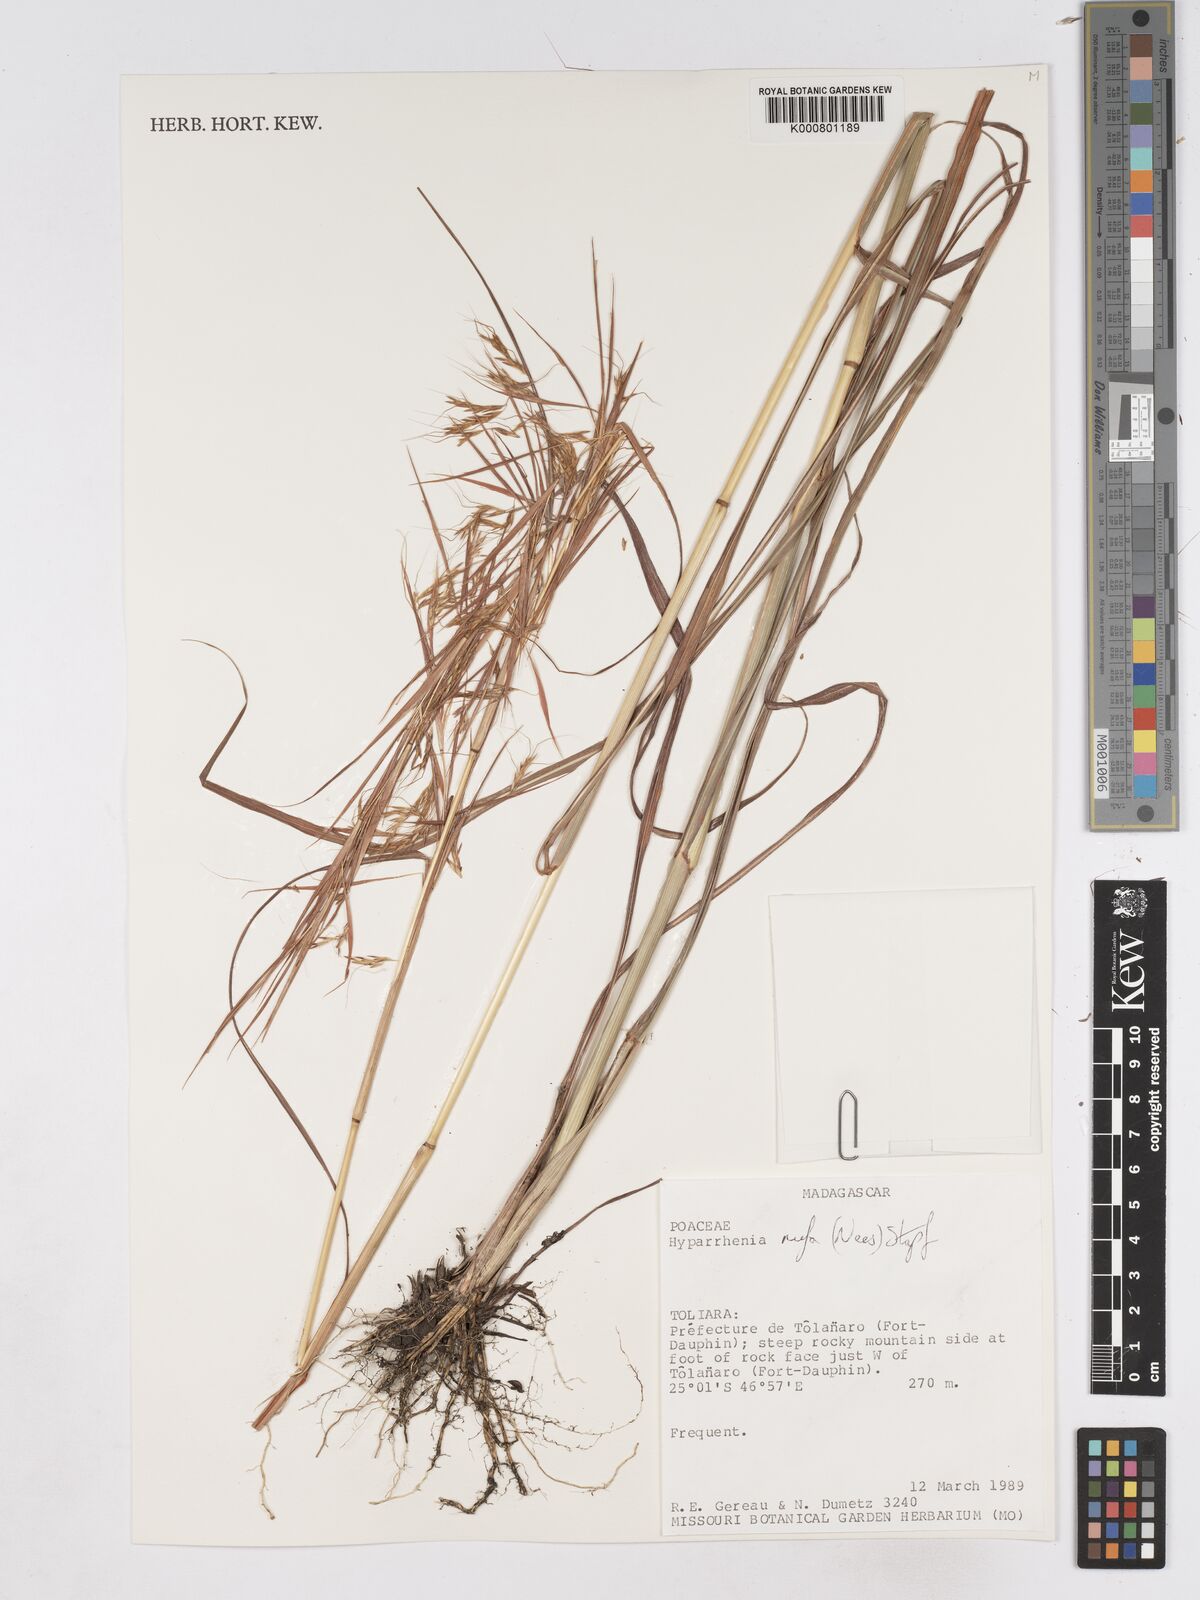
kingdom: Plantae
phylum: Tracheophyta
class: Liliopsida
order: Poales
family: Poaceae
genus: Hyparrhenia
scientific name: Hyparrhenia rufa
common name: Jaraguagrass
